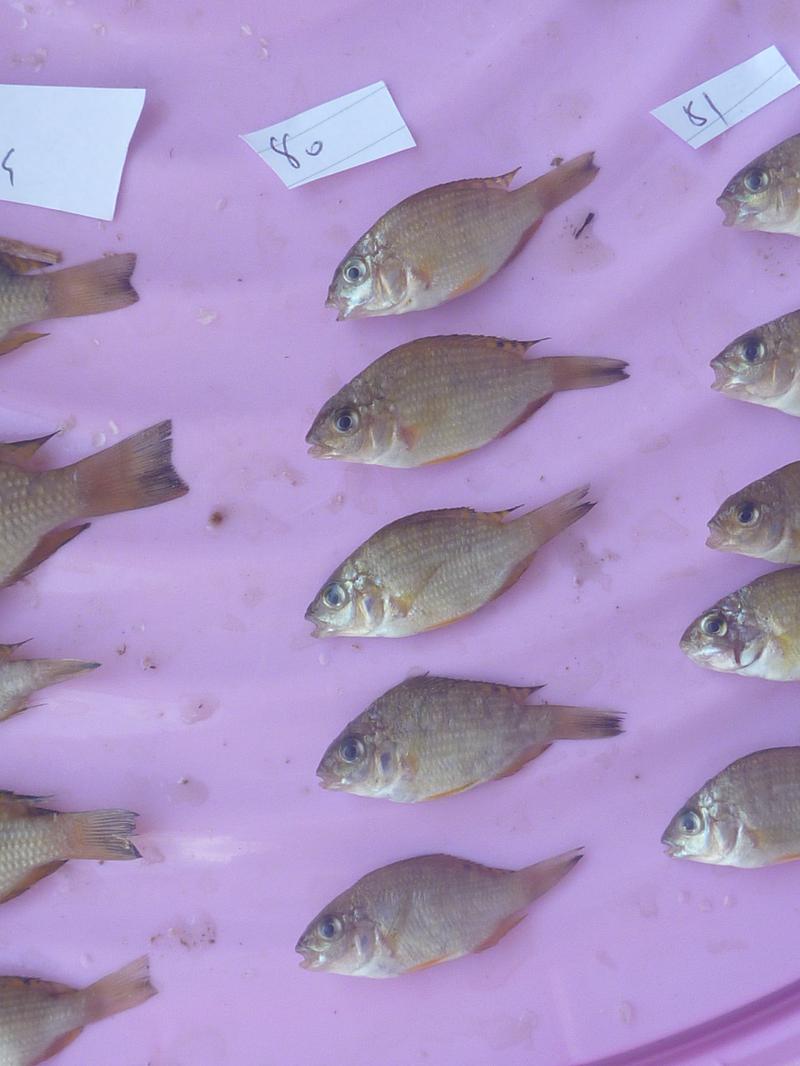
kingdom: Animalia
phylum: Chordata
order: Perciformes
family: Cichlidae
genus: Coptodon
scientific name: Coptodon rendalli
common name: Redbreast tilapia
